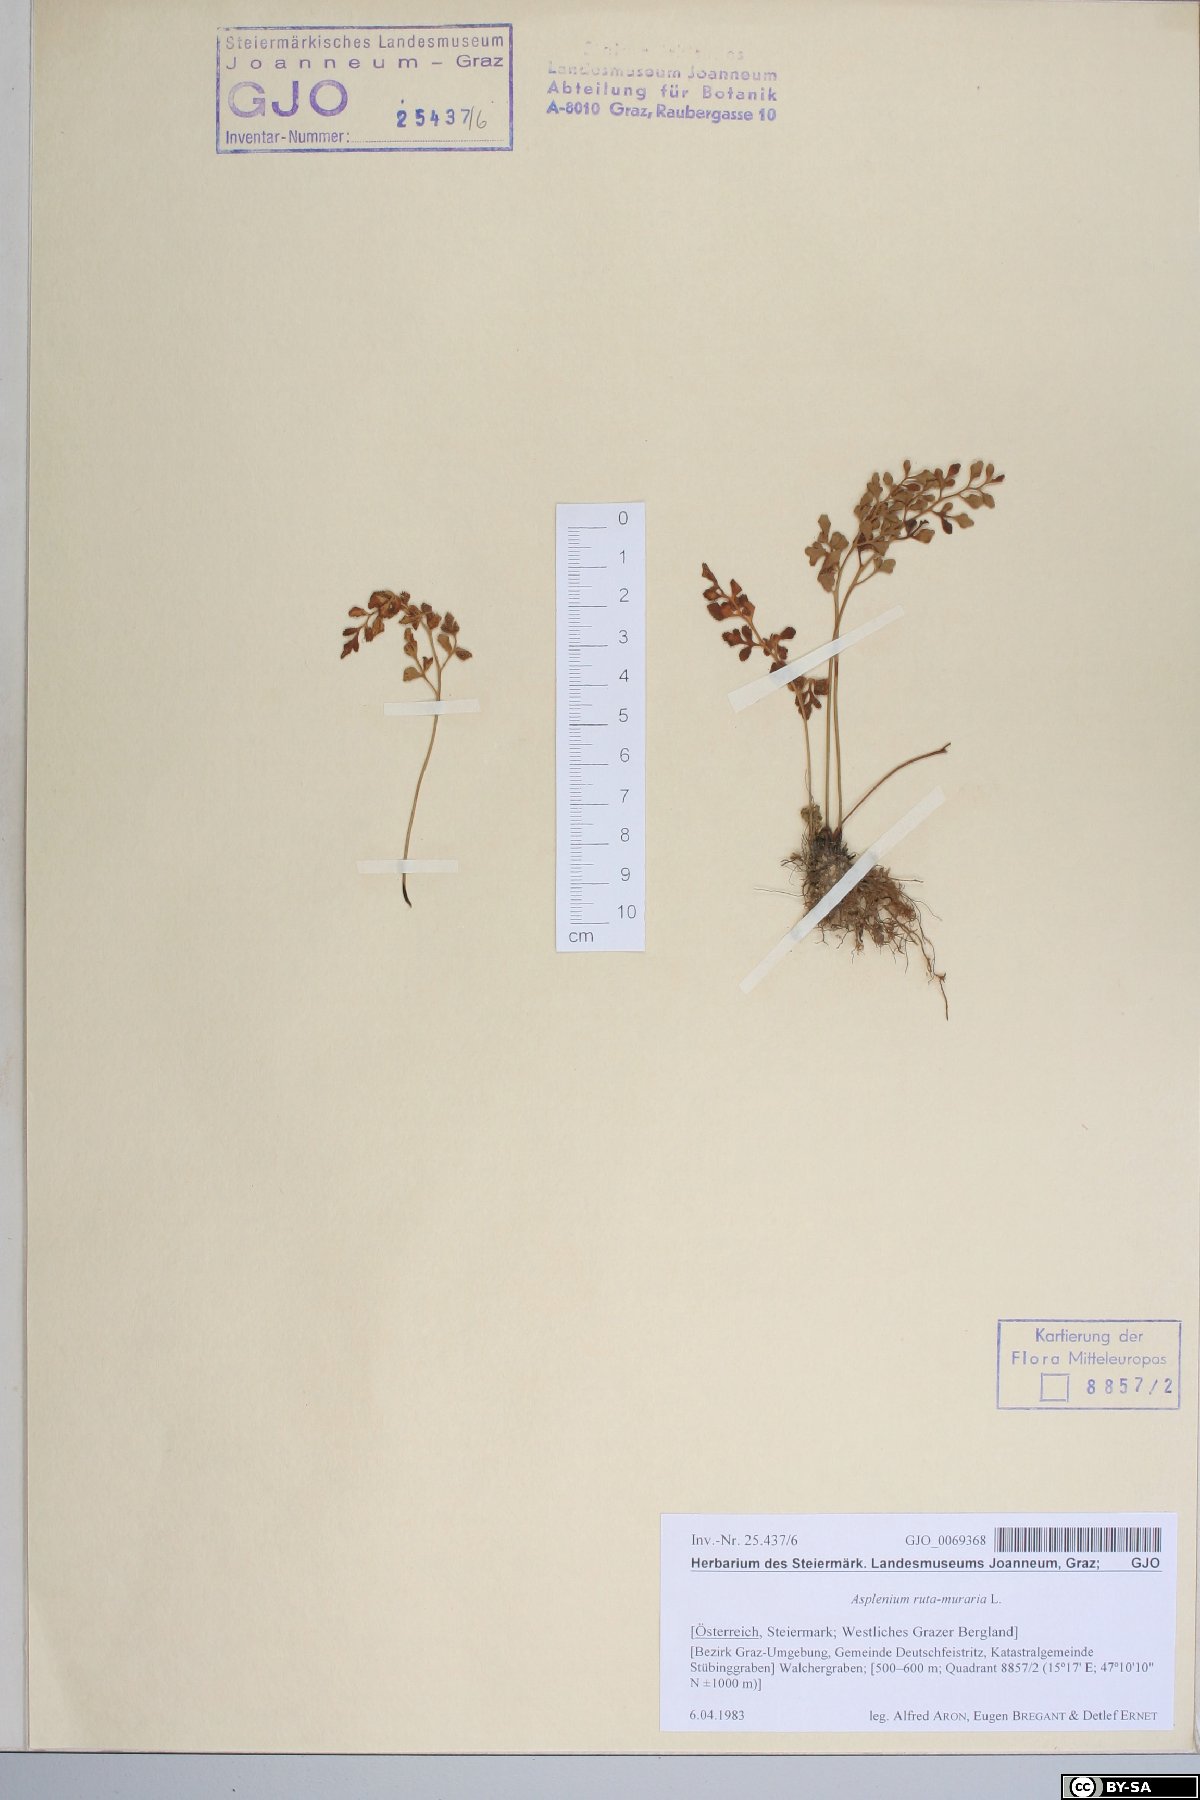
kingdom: Plantae
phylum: Tracheophyta
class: Polypodiopsida
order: Polypodiales
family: Aspleniaceae
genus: Asplenium
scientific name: Asplenium ruta-muraria
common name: Wall-rue
